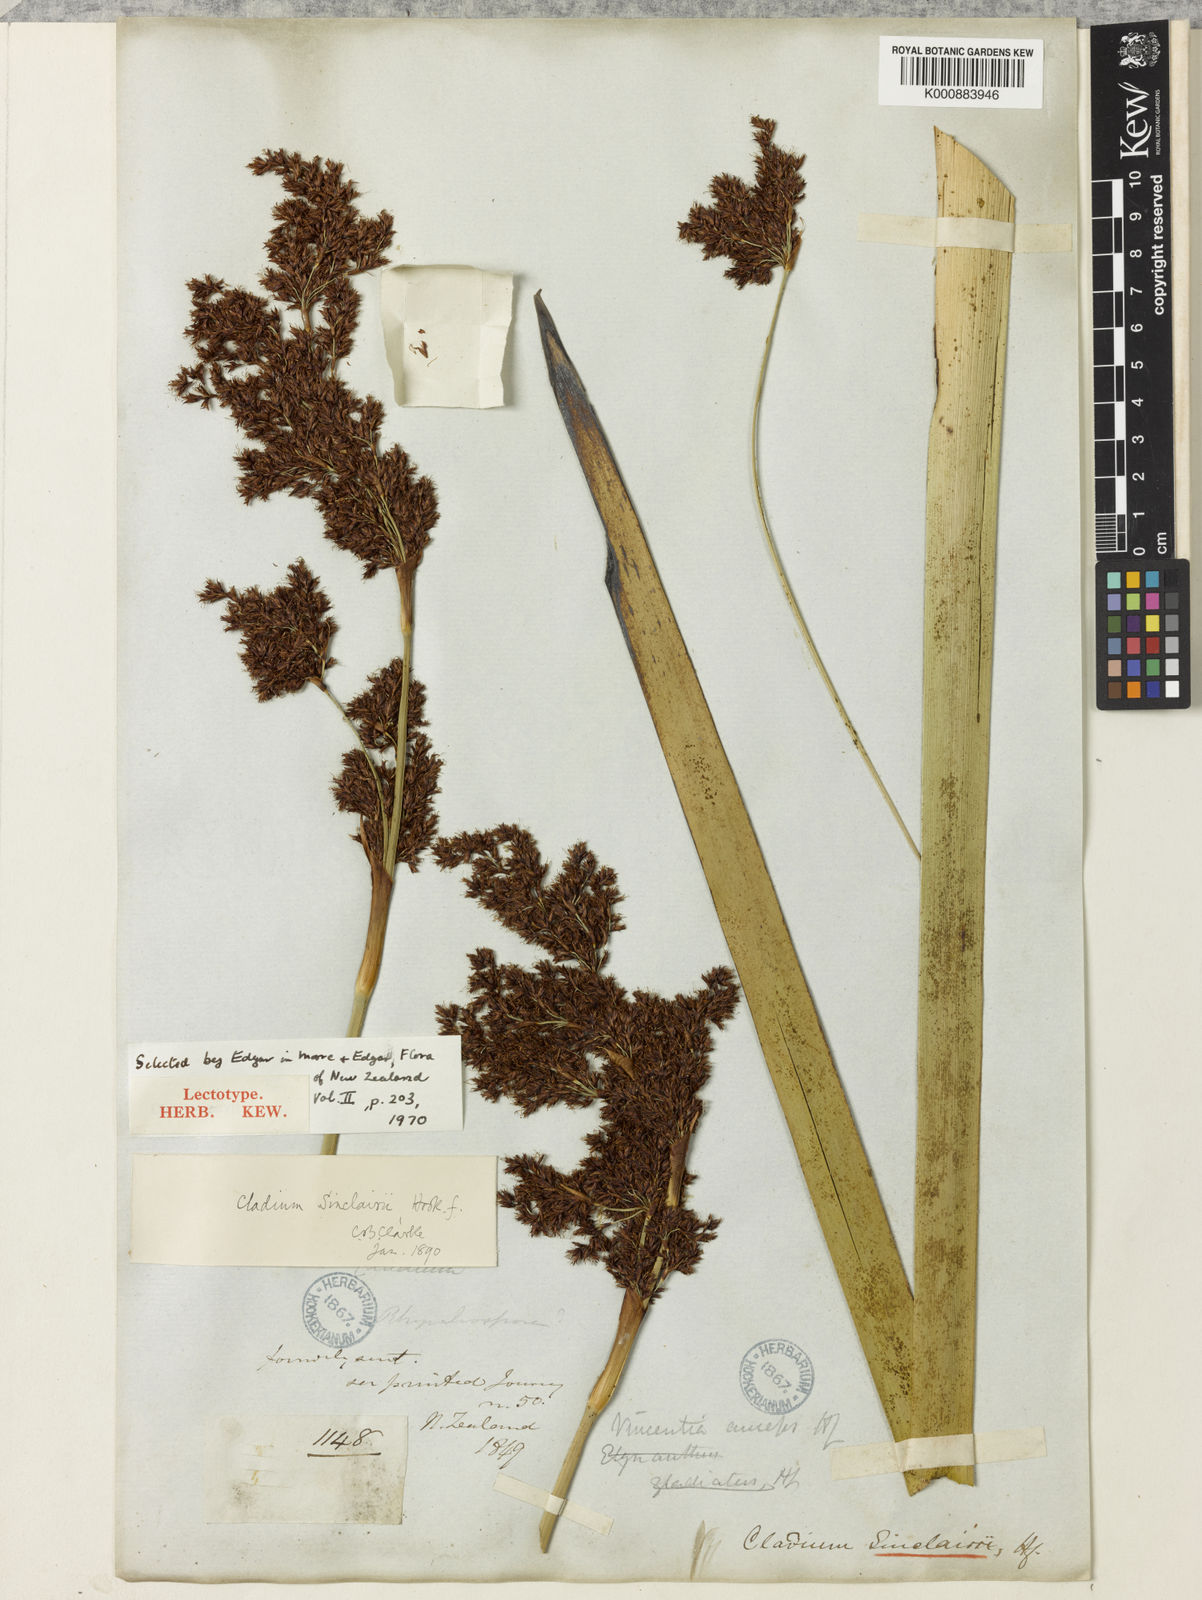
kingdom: Plantae
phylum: Tracheophyta
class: Liliopsida
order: Poales
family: Cyperaceae
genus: Machaerina
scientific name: Machaerina sinclairii
